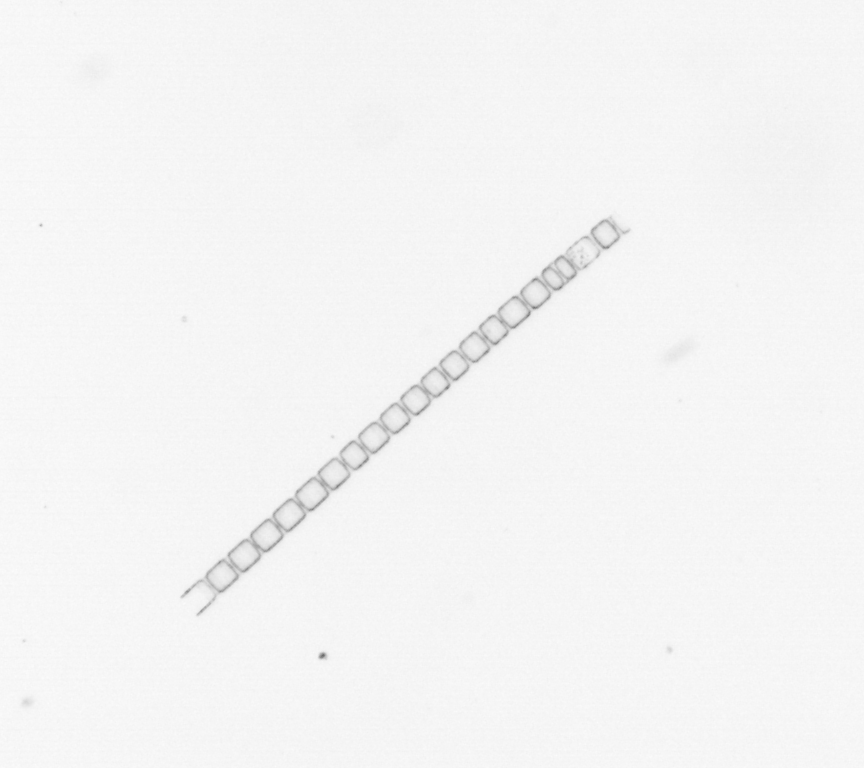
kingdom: Chromista
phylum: Ochrophyta
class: Bacillariophyceae
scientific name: Bacillariophyceae
